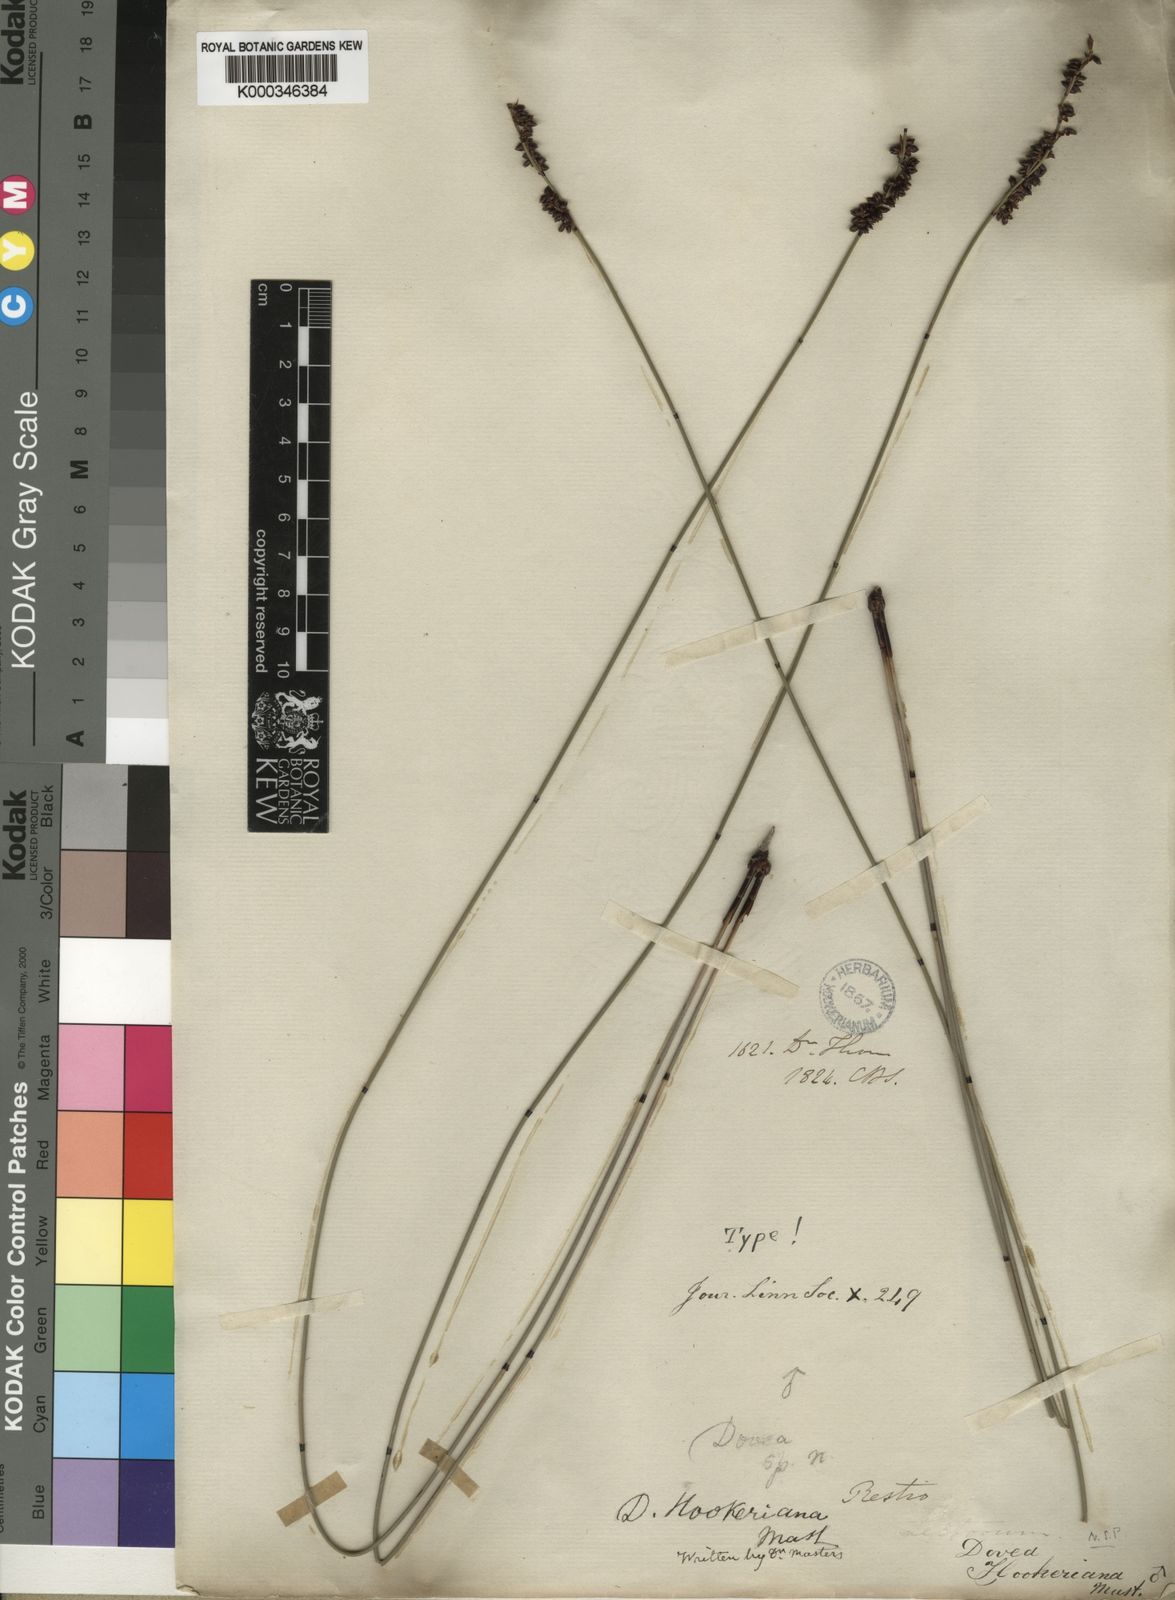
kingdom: Plantae
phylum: Tracheophyta
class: Liliopsida
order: Poales
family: Restionaceae
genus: Elegia
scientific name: Elegia hookeriana
